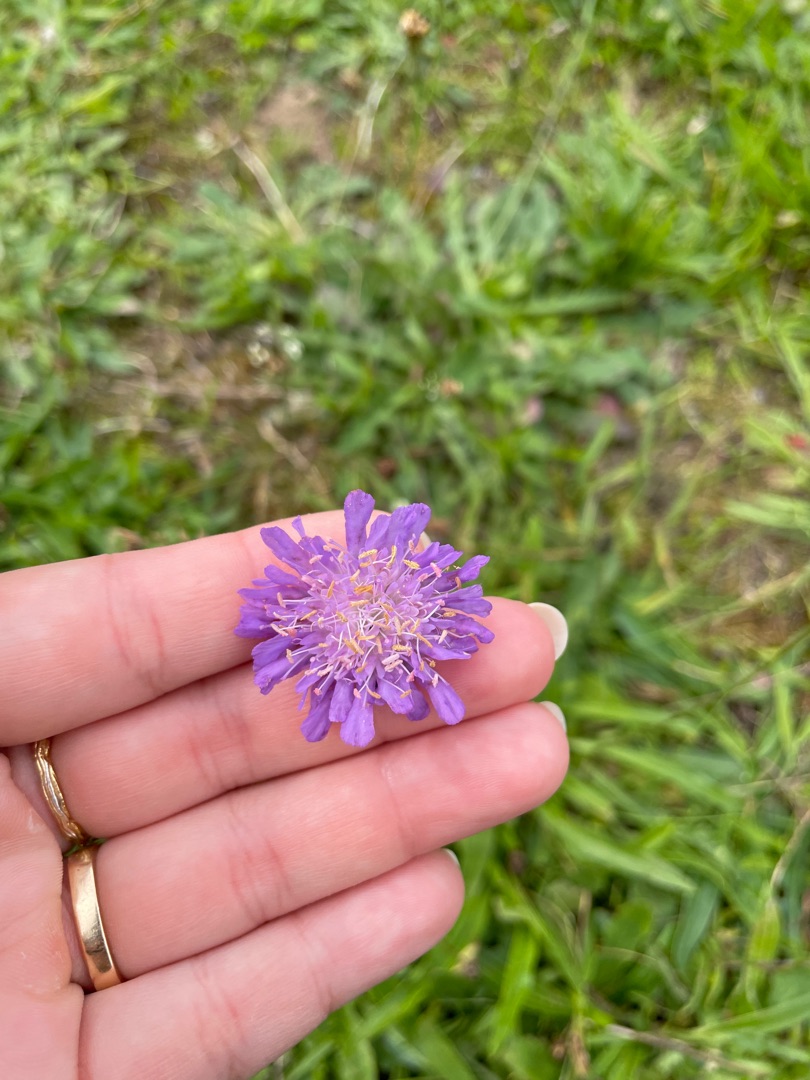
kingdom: Plantae
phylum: Tracheophyta
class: Magnoliopsida
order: Dipsacales
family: Caprifoliaceae
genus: Knautia
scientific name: Knautia arvensis
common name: Blåhat
